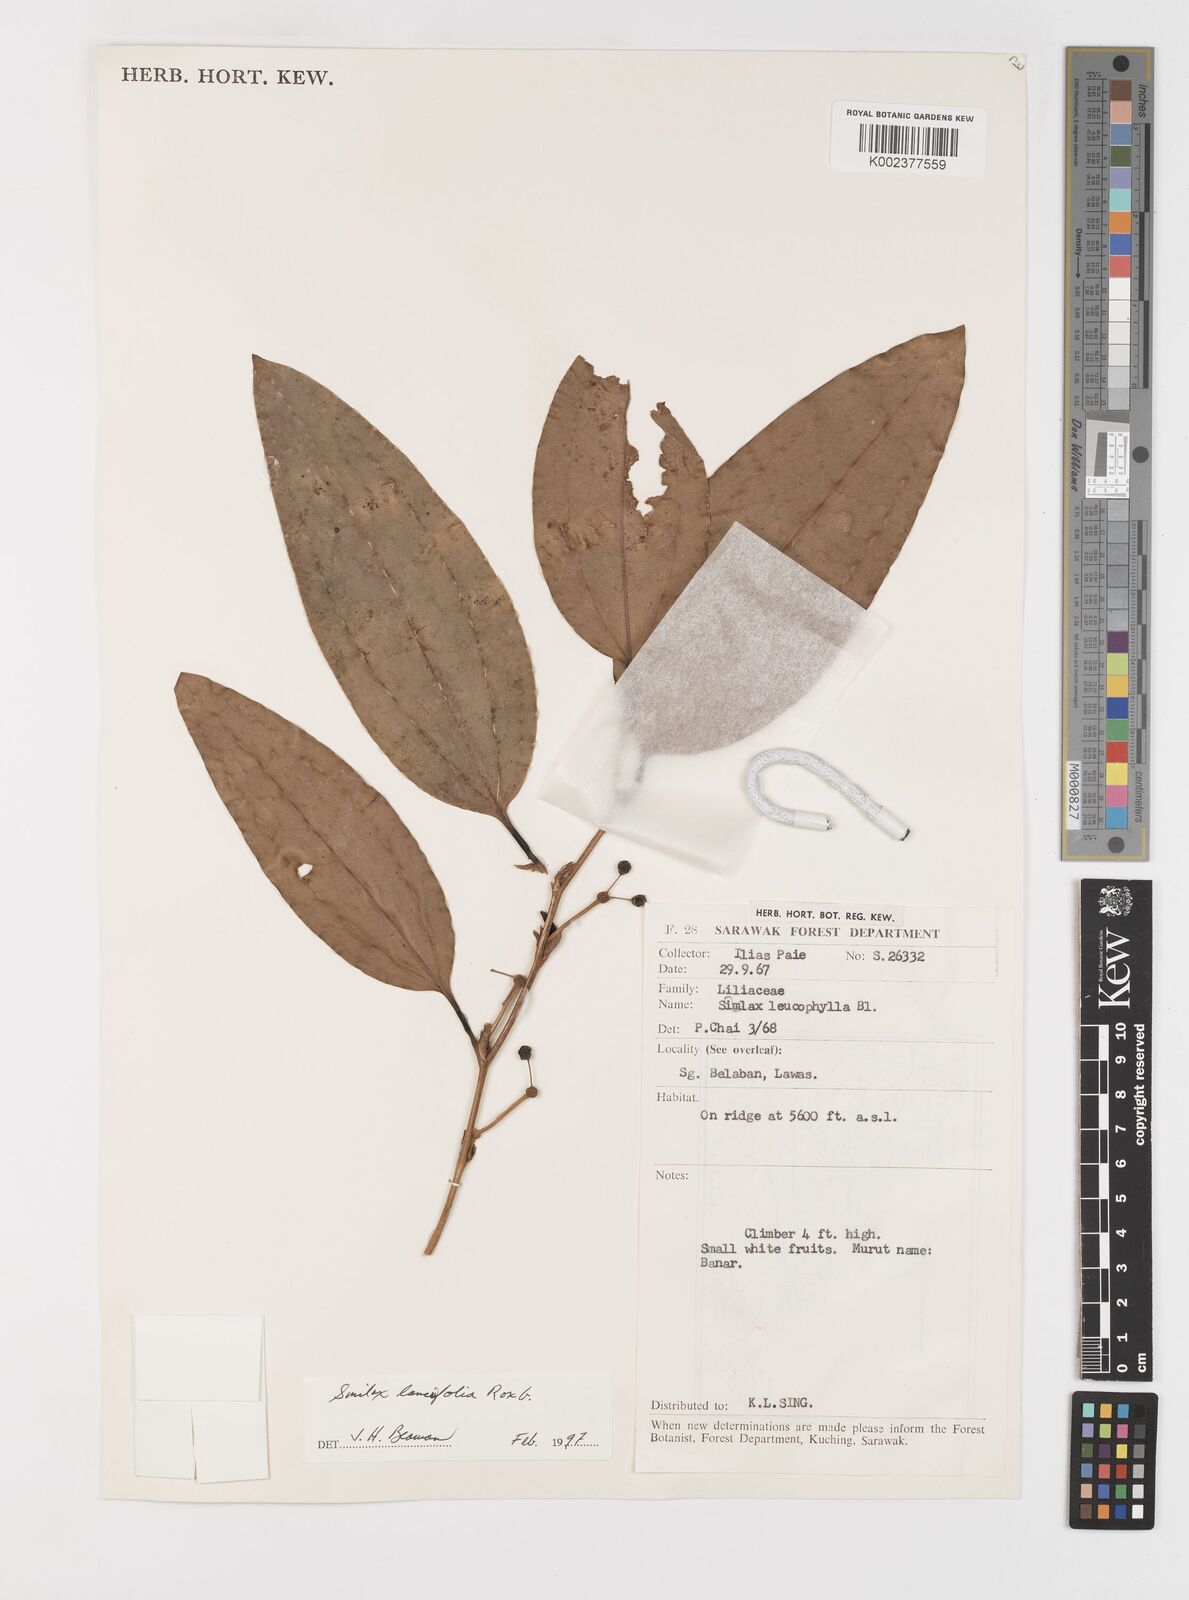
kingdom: Plantae
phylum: Tracheophyta
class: Liliopsida
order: Liliales
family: Smilacaceae
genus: Smilax
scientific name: Smilax lanceifolia
